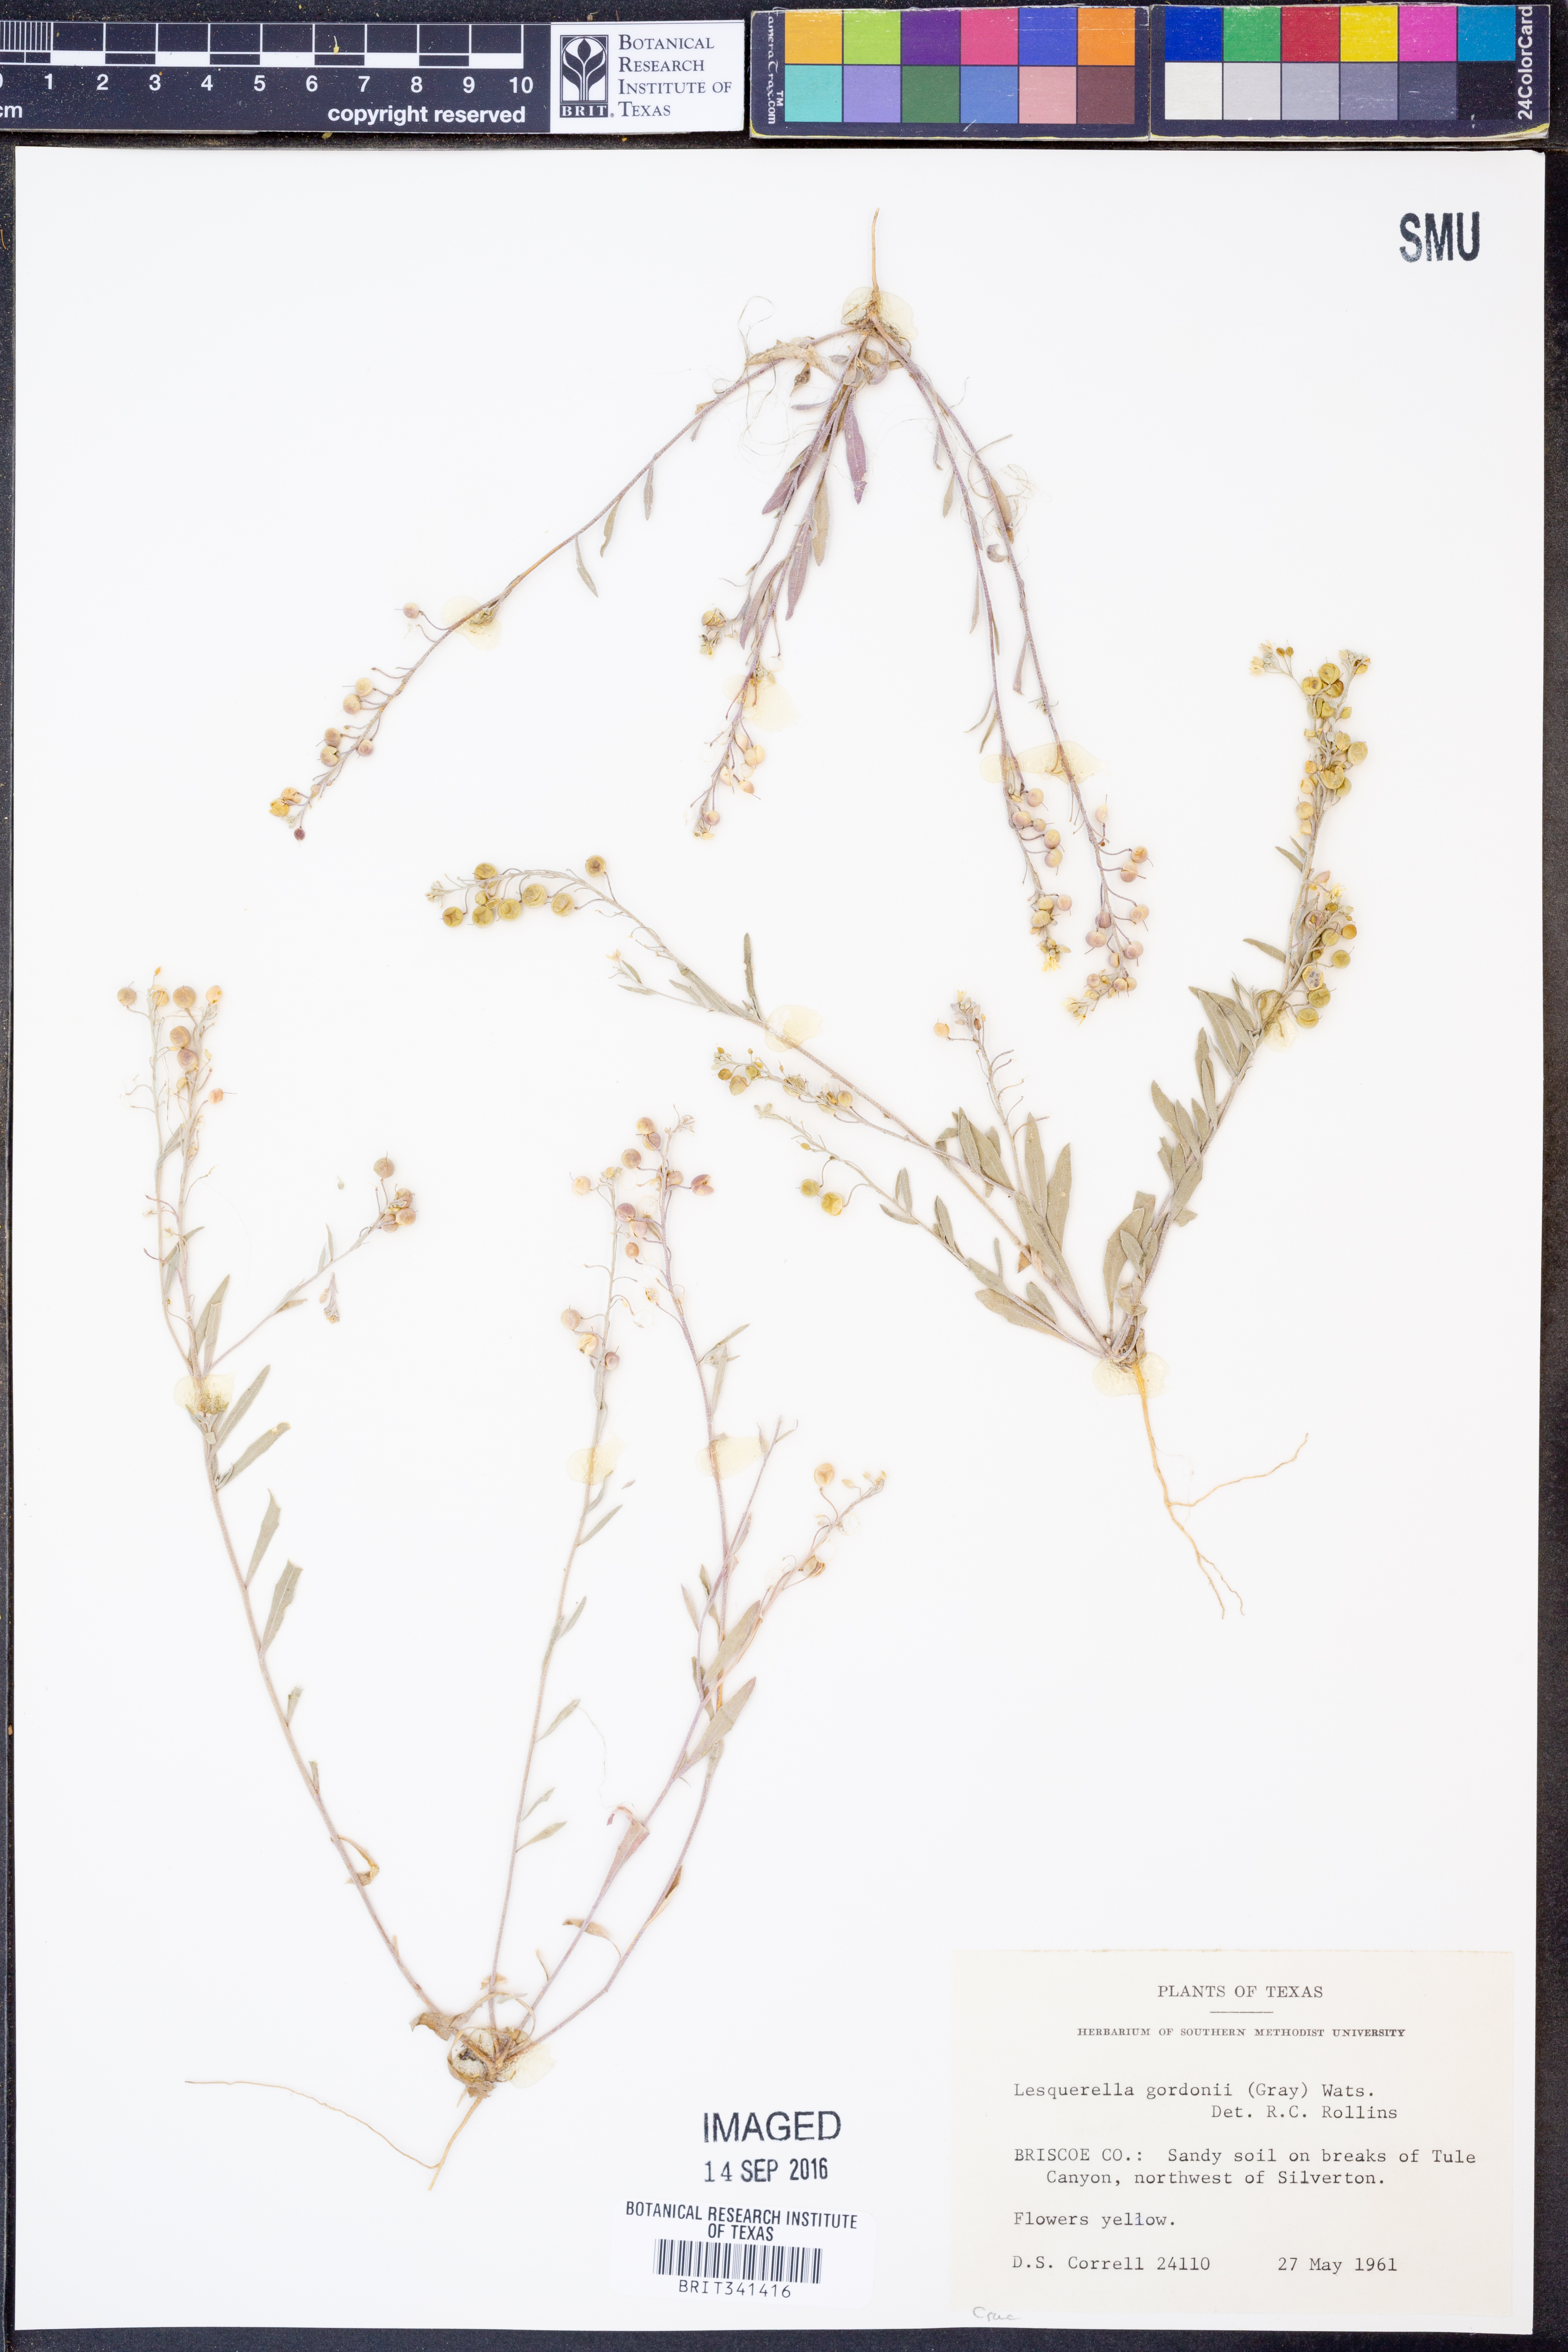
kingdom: Plantae
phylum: Tracheophyta
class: Magnoliopsida
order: Brassicales
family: Brassicaceae
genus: Physaria
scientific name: Physaria gordonii
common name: Gordon's bladderpod
